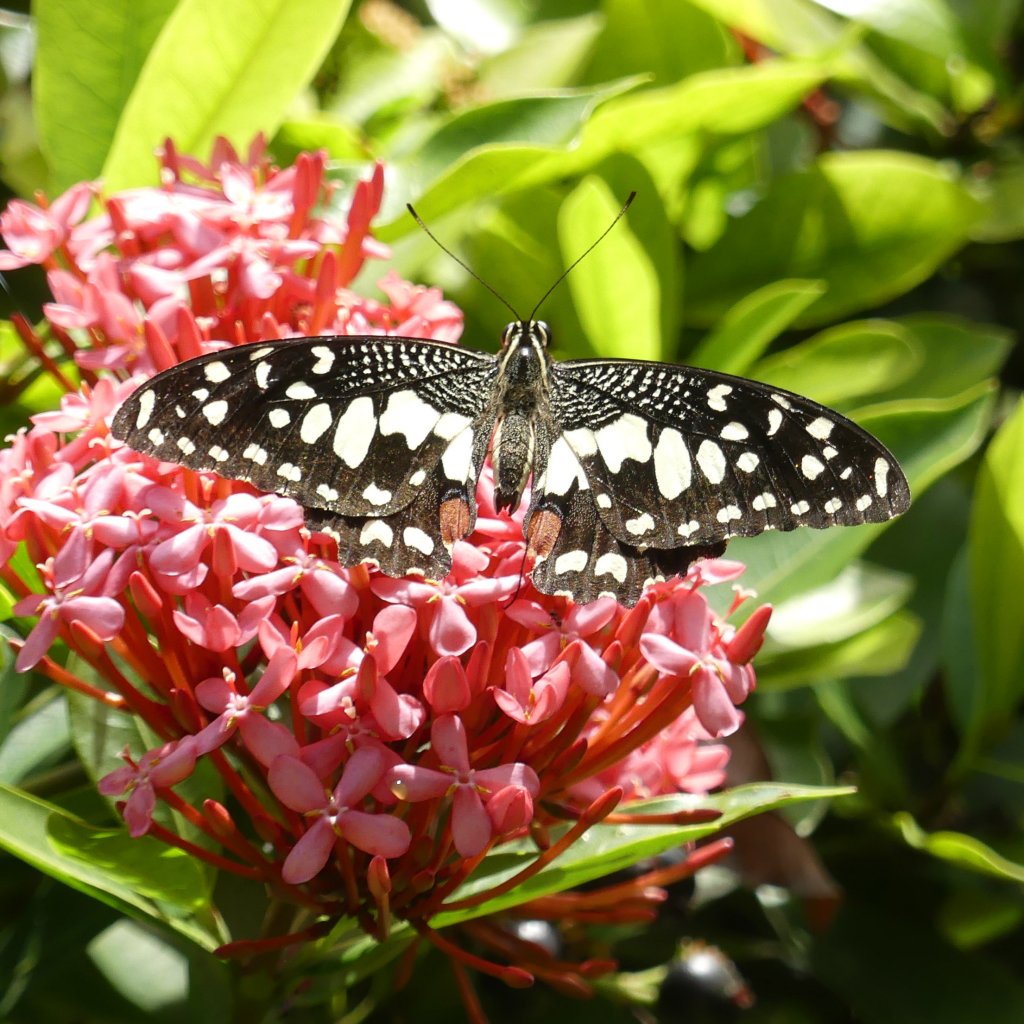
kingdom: Animalia
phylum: Arthropoda
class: Insecta
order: Lepidoptera
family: Papilionidae
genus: Papilio
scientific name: Papilio demoleus
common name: Lime Swallowtail
